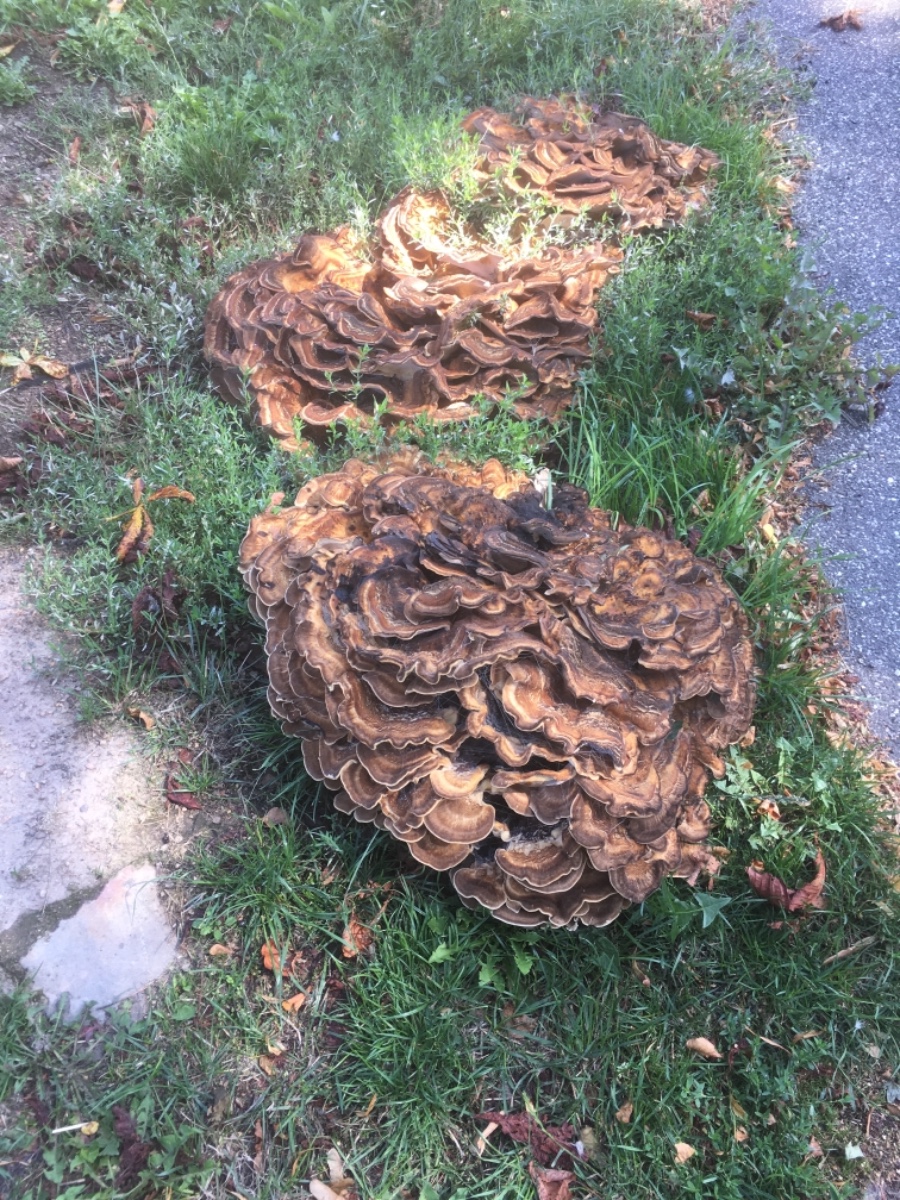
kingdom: Fungi
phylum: Basidiomycota
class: Agaricomycetes
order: Polyporales
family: Meripilaceae
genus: Meripilus
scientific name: Meripilus giganteus
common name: kæmpeporesvamp
